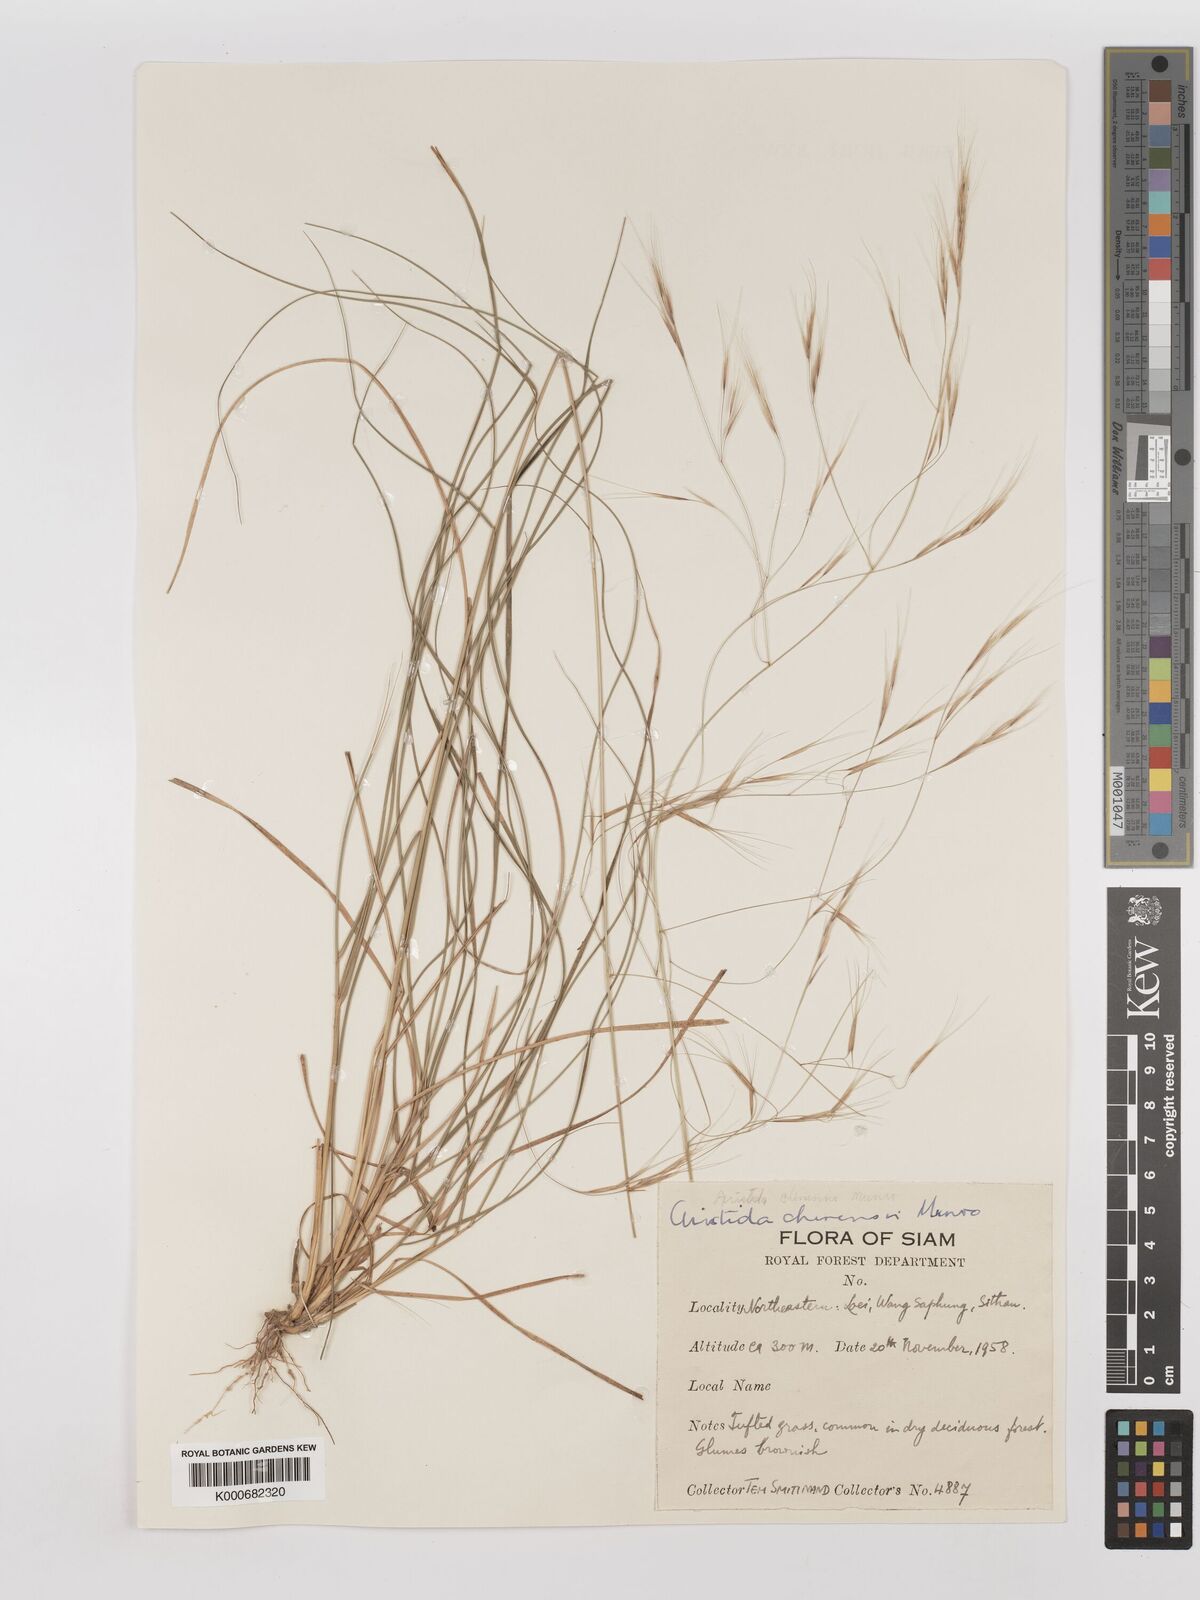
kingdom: Plantae
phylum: Tracheophyta
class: Liliopsida
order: Poales
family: Poaceae
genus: Aristida
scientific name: Aristida culionensis
